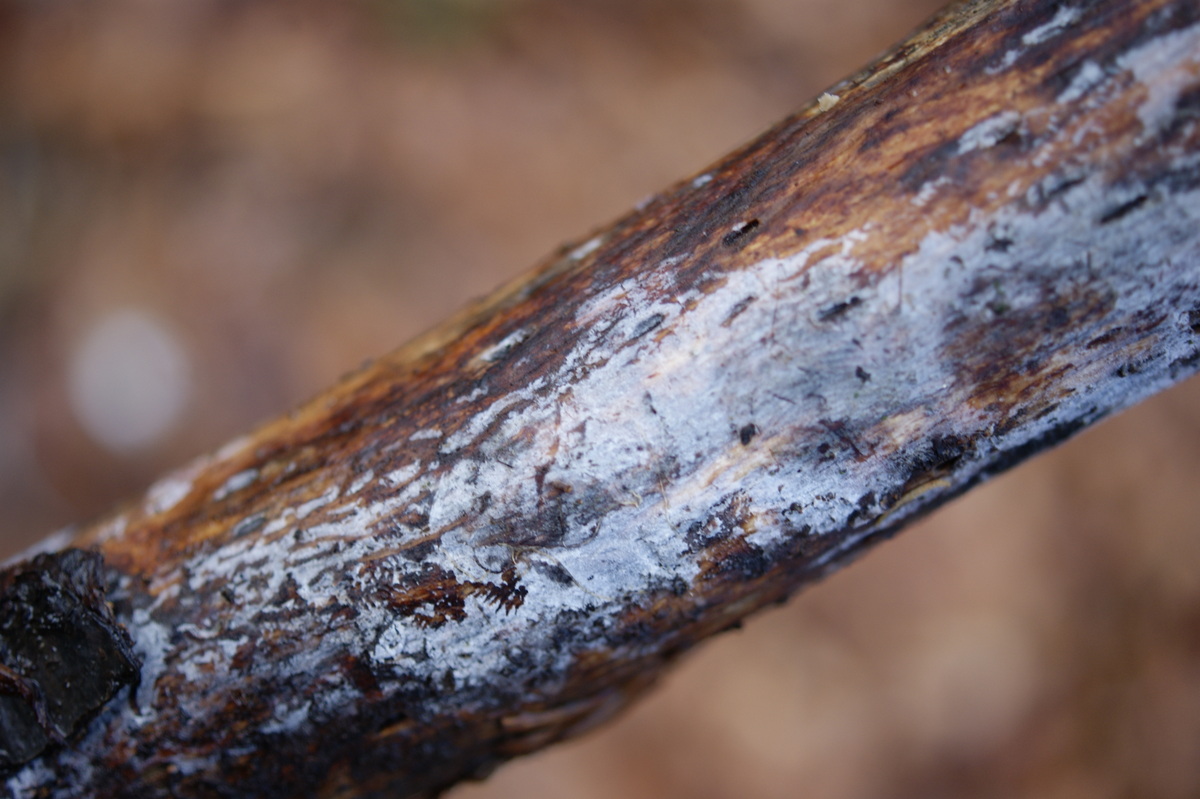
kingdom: Fungi
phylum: Basidiomycota
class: Tremellomycetes
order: Tremellales
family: Exidiaceae
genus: Exidiopsis
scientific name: Exidiopsis effusa
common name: smuk bævrehinde
